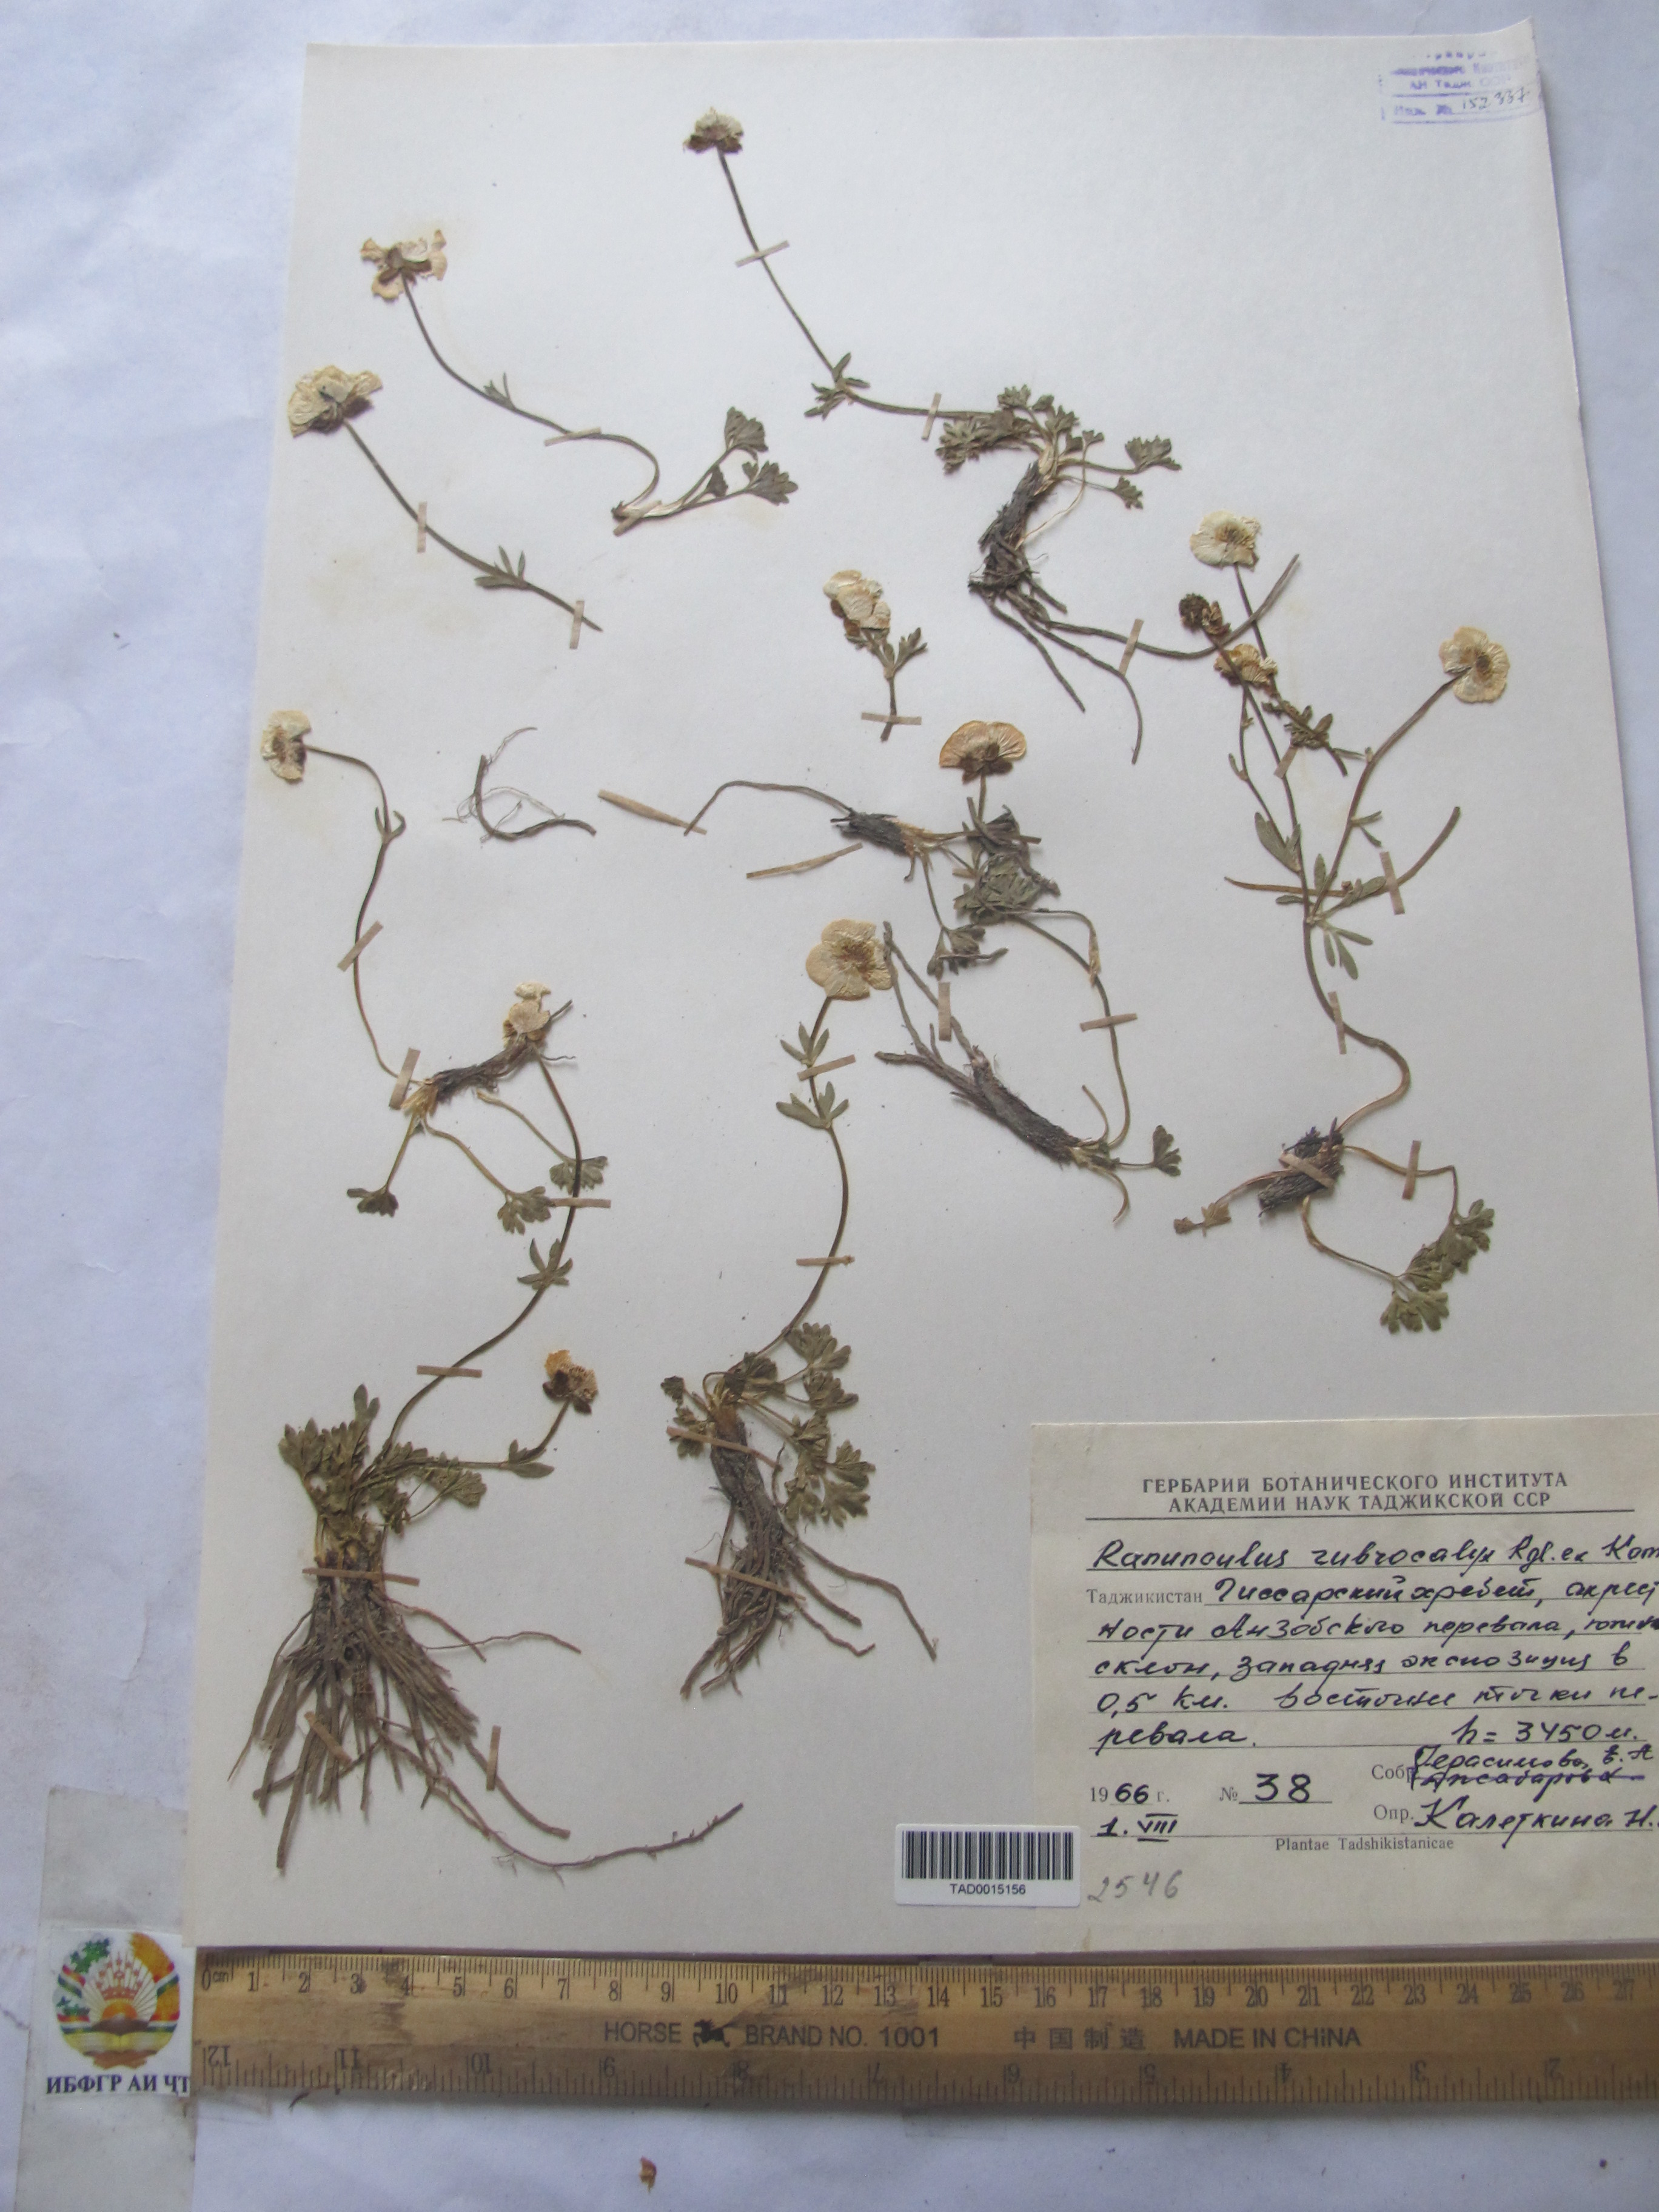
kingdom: Plantae
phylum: Tracheophyta
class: Magnoliopsida
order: Ranunculales
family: Ranunculaceae
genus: Ranunculus
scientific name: Ranunculus rubrocalyx
